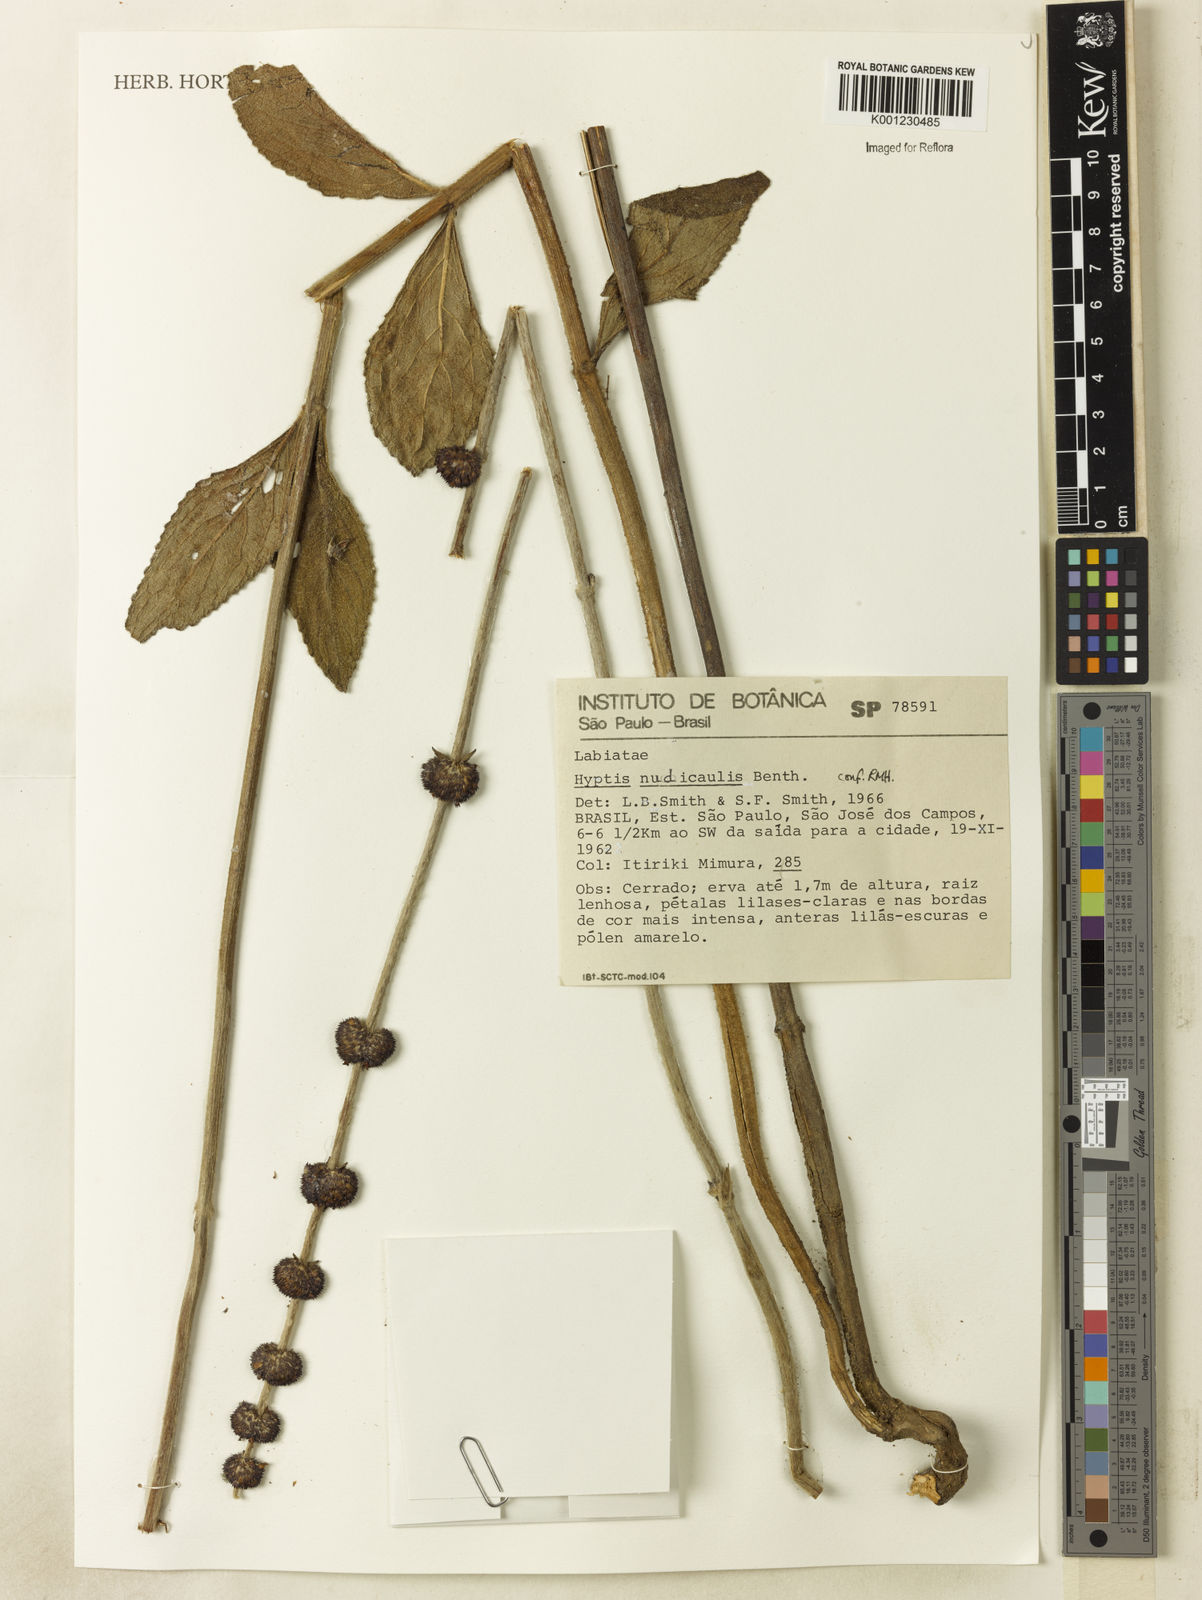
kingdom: Plantae
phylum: Tracheophyta
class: Magnoliopsida
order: Lamiales
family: Lamiaceae
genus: Hyptis
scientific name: Hyptis nudicaulis
